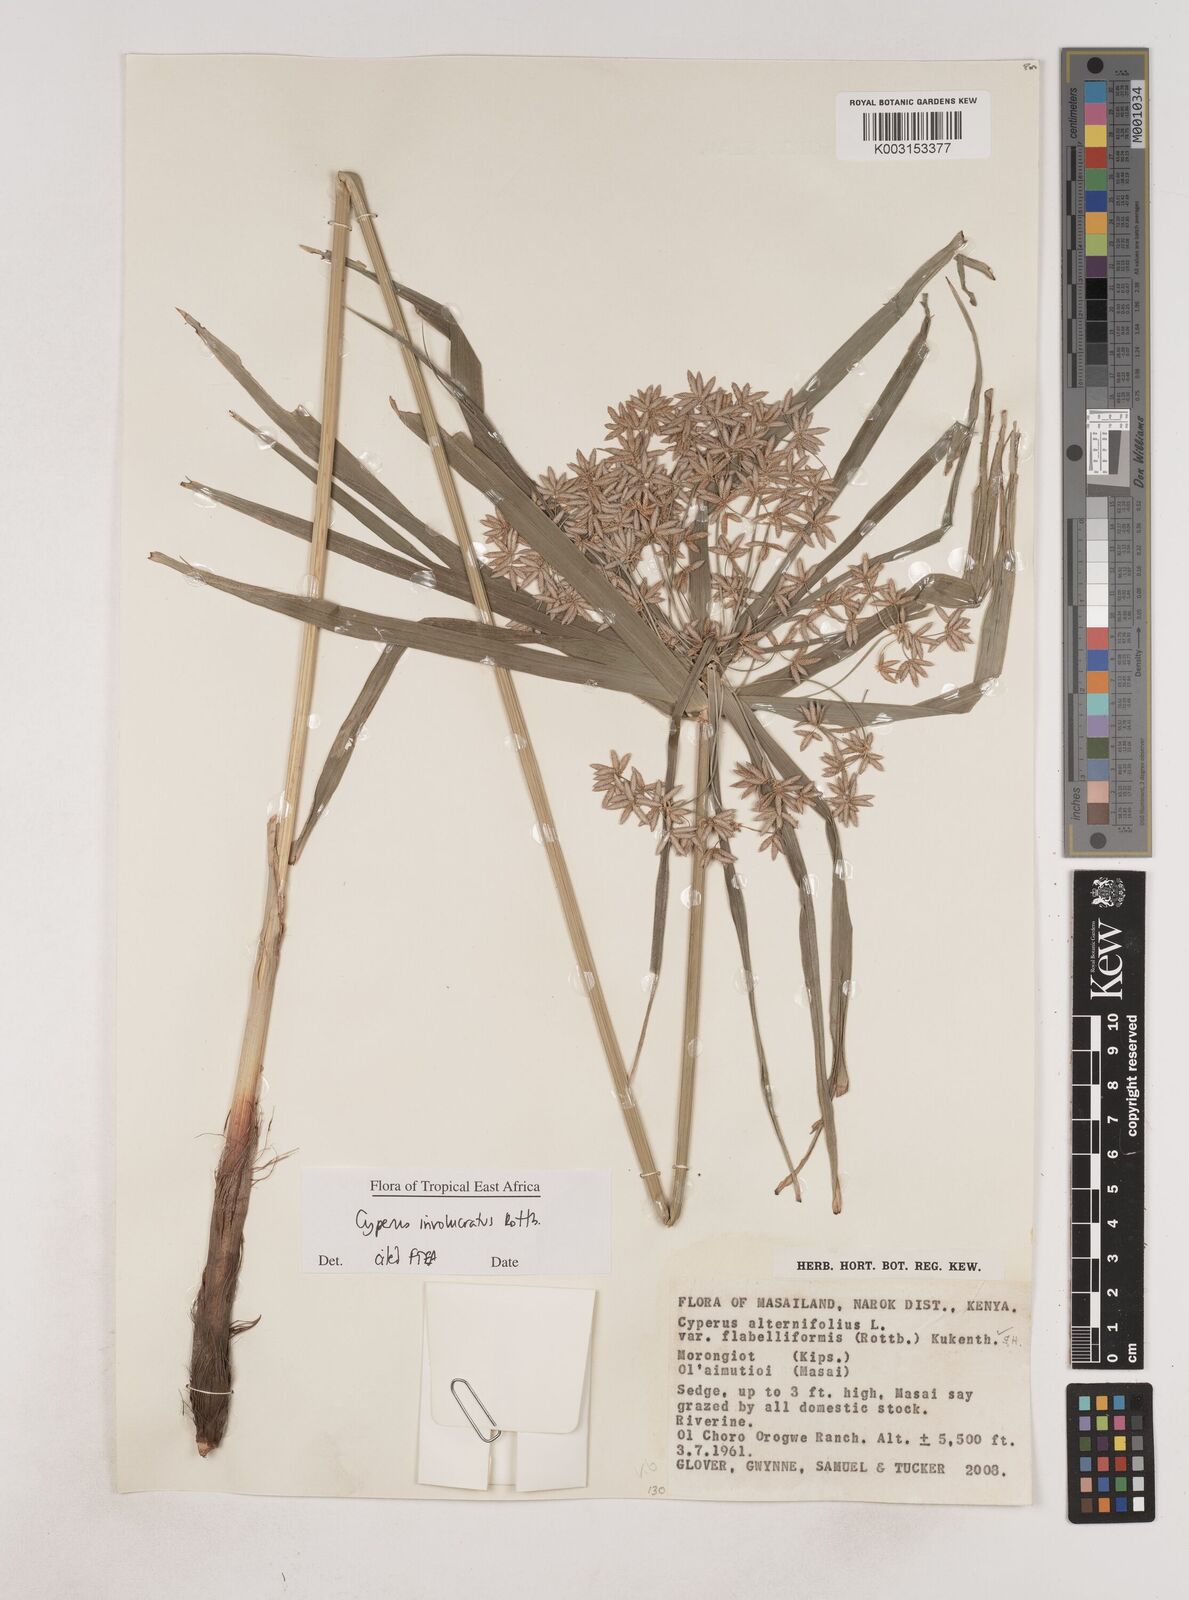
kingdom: Plantae
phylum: Tracheophyta
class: Liliopsida
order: Poales
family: Cyperaceae
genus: Cyperus
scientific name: Cyperus alternifolius
